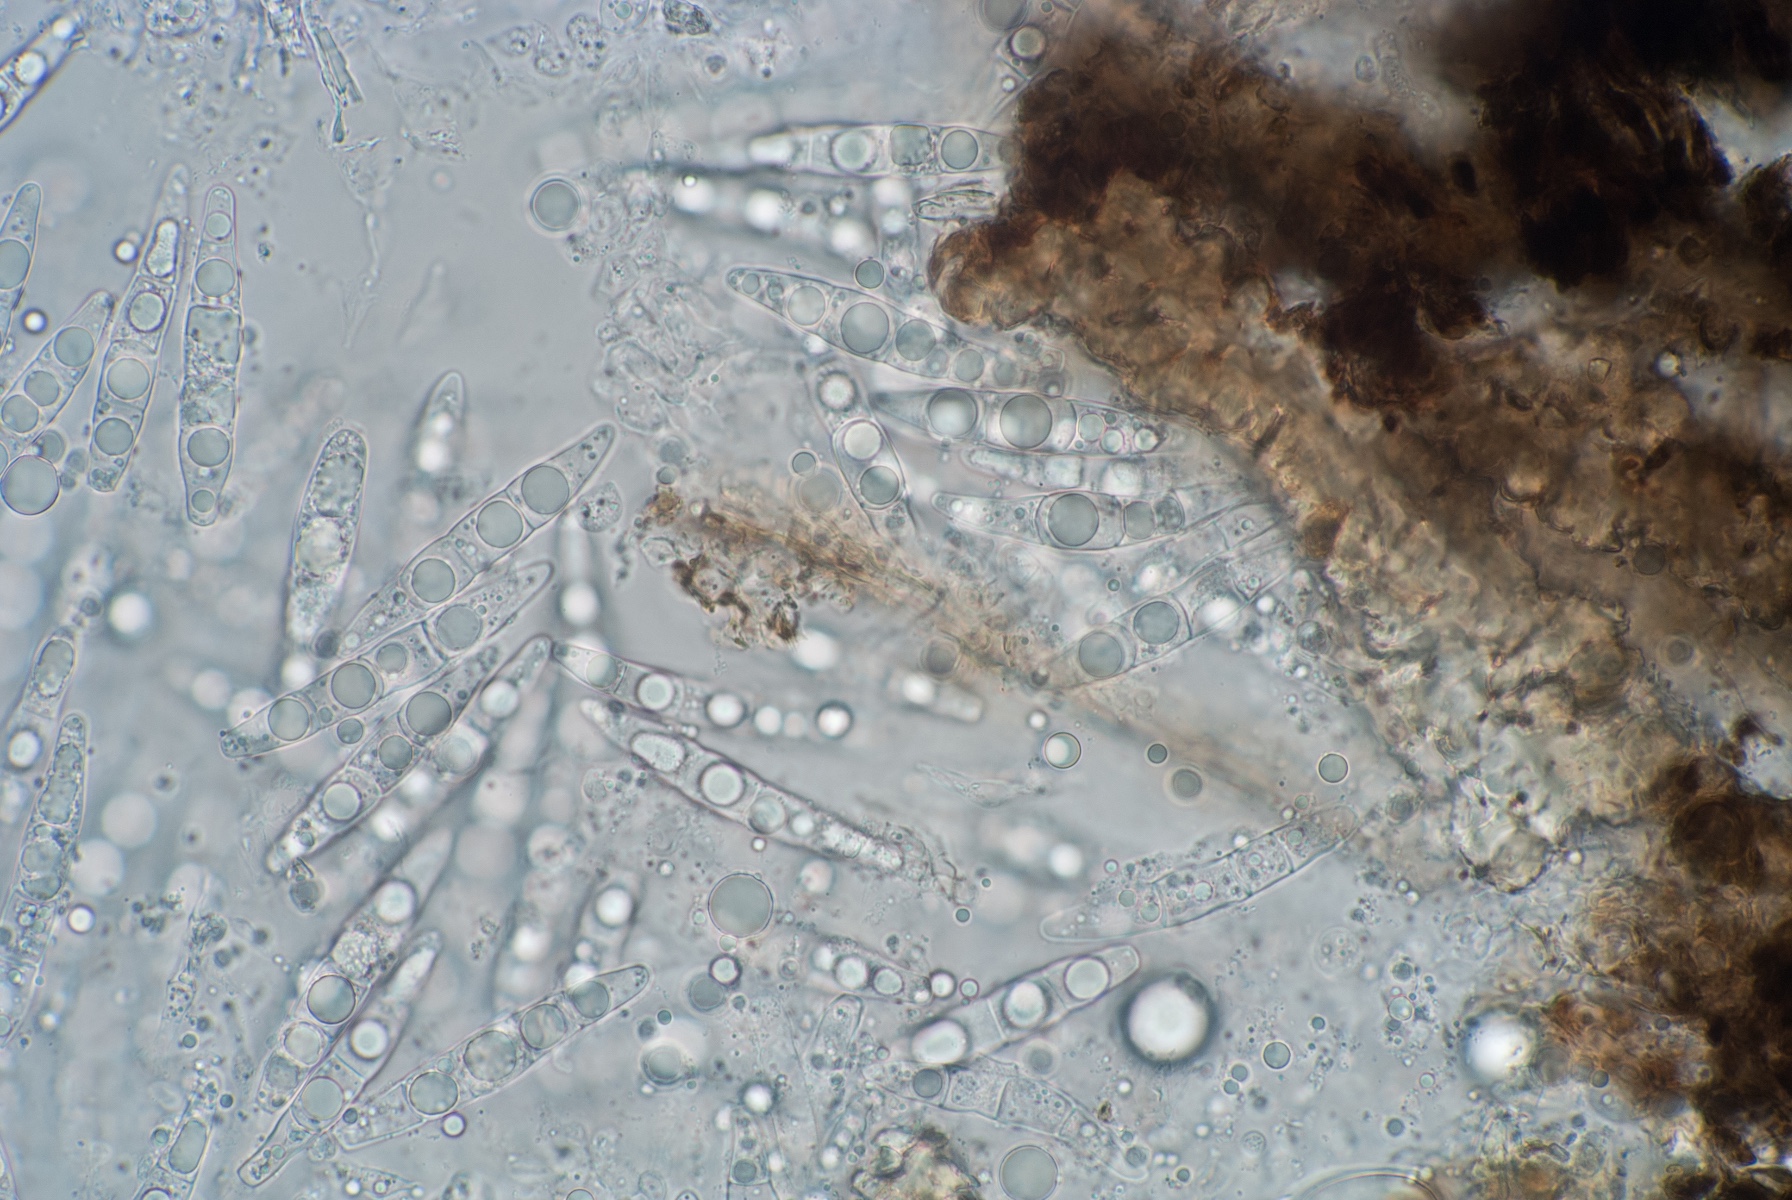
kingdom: Fungi
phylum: Ascomycota
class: Dothideomycetes
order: Pleosporales
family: Phaeosphaeriaceae
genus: Stagonospora
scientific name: Stagonospora elegans
